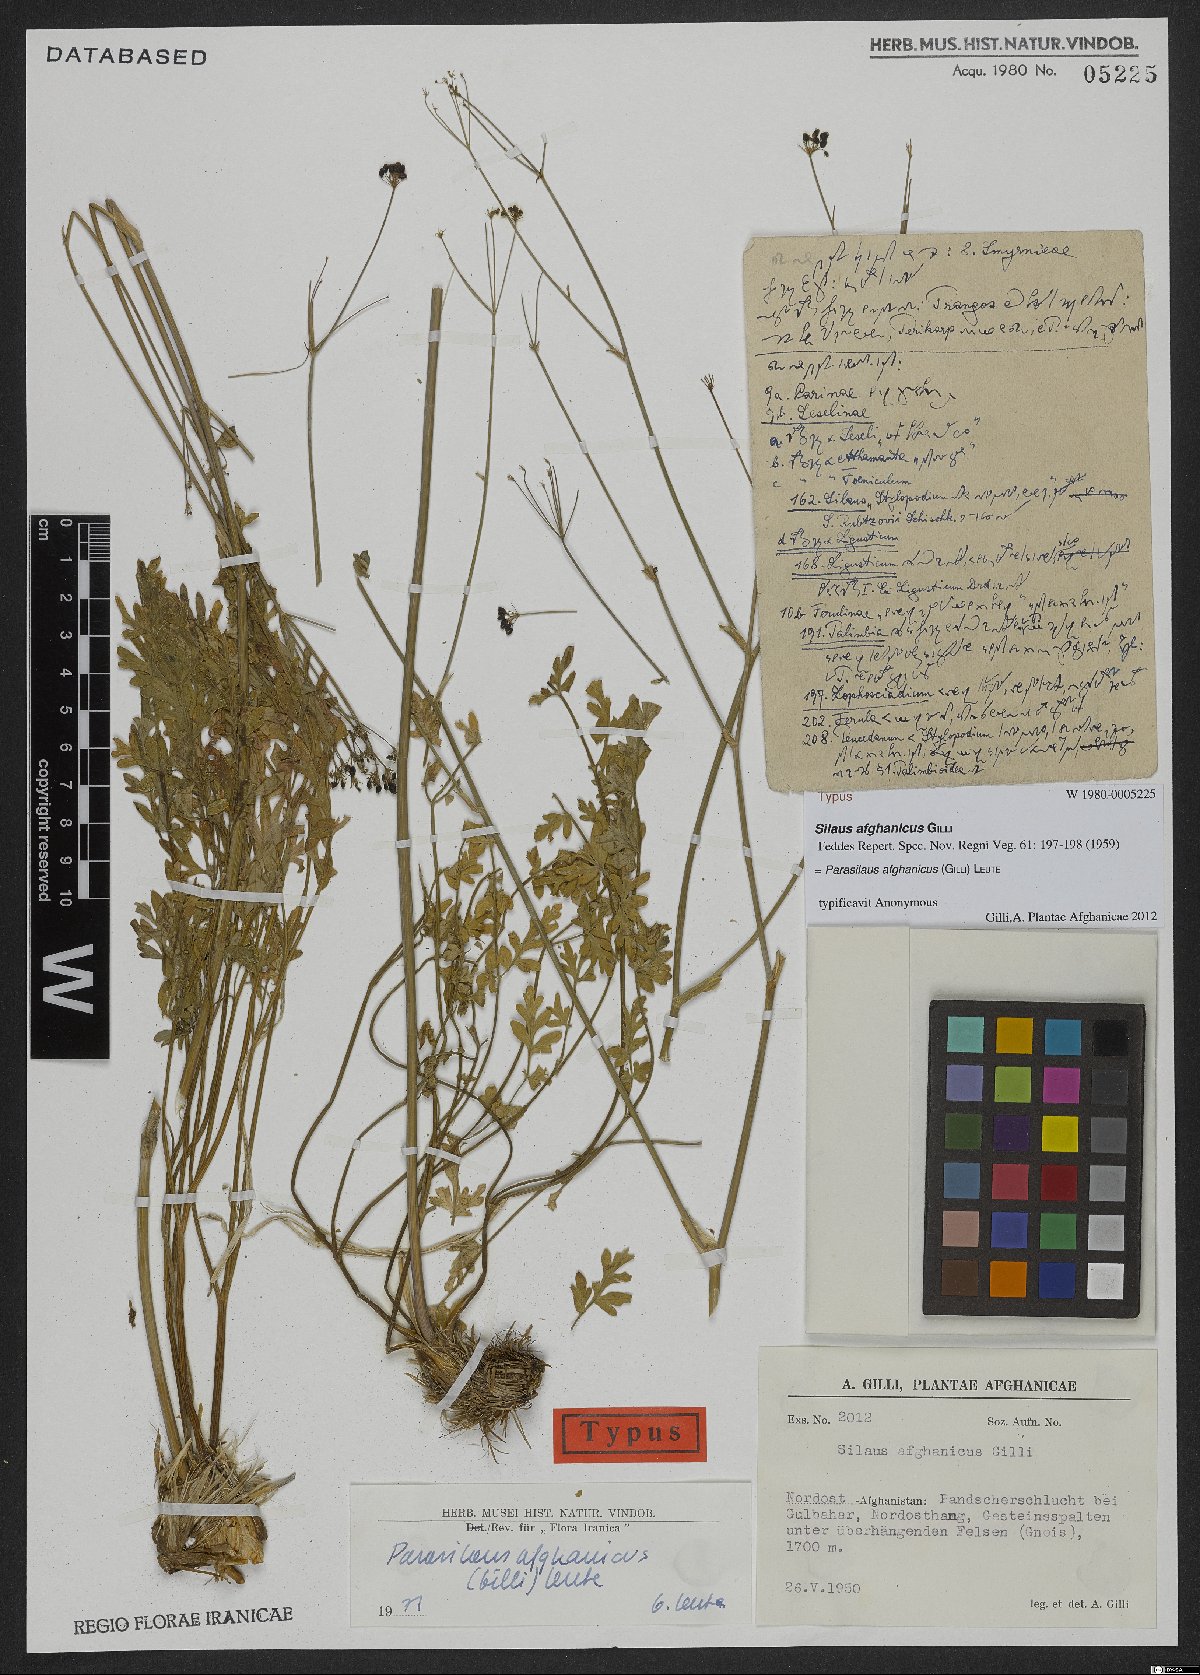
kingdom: Plantae
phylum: Tracheophyta
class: Magnoliopsida
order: Apiales
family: Apiaceae
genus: Parasilaus
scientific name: Parasilaus asiaticus
